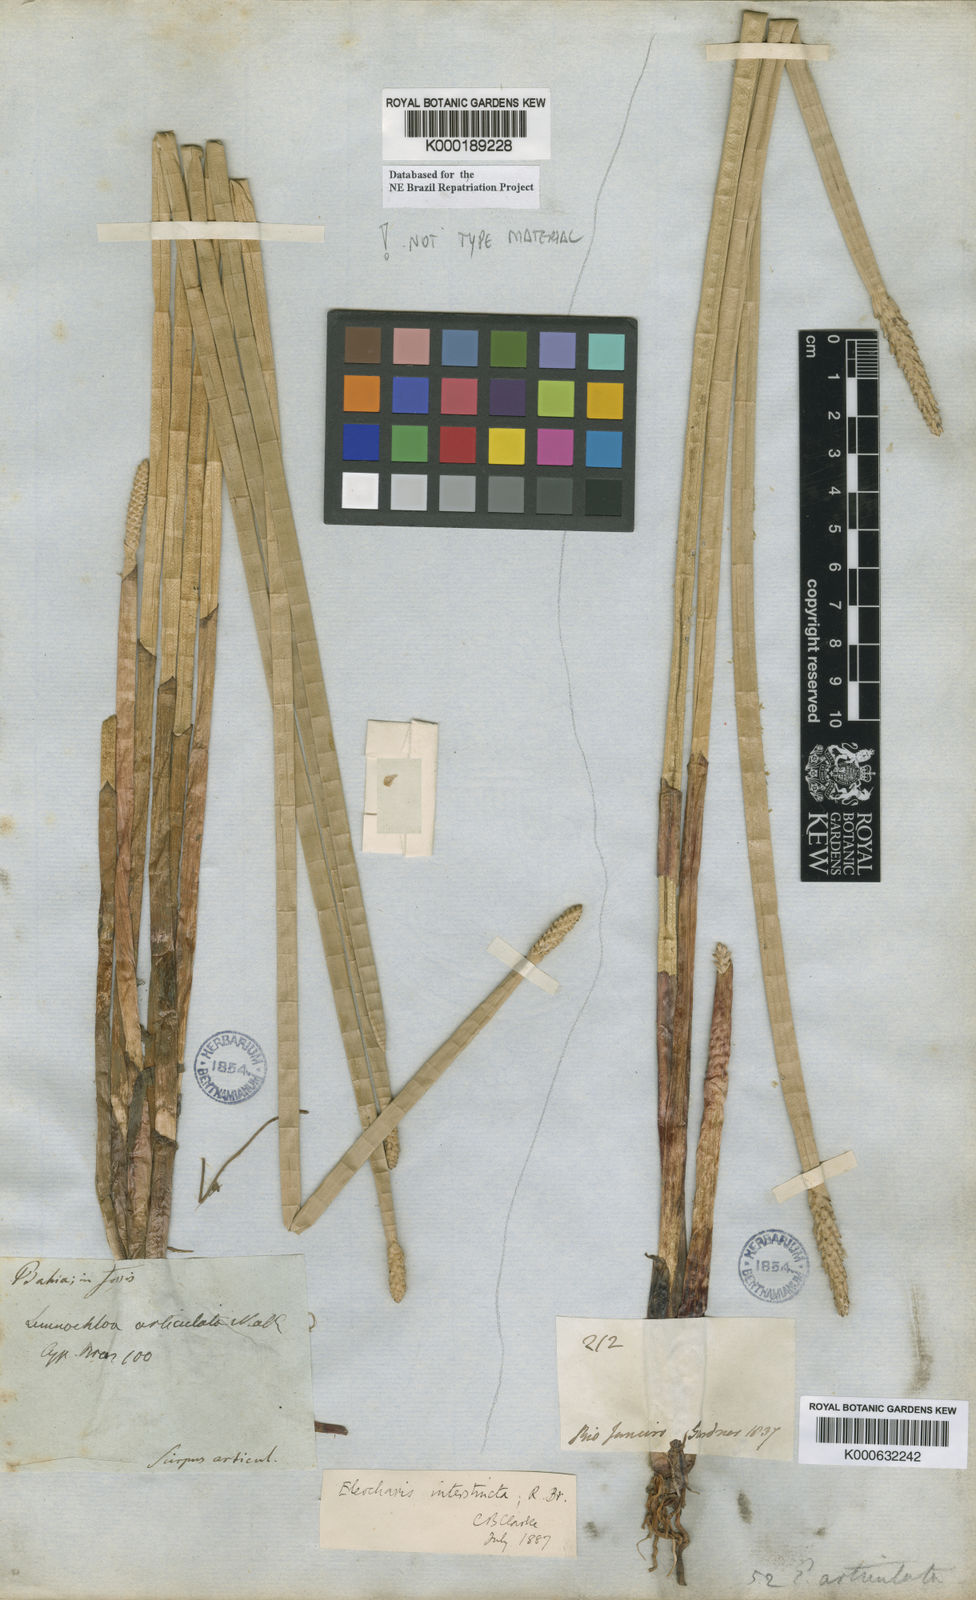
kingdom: Plantae
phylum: Tracheophyta
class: Liliopsida
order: Poales
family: Cyperaceae
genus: Eleocharis
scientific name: Eleocharis
